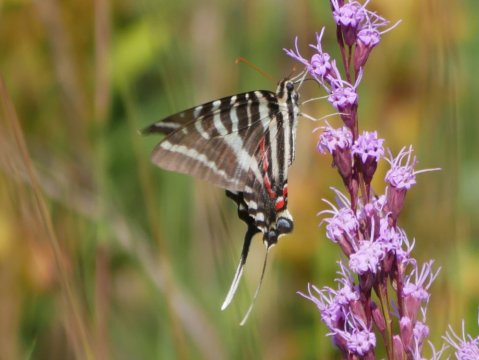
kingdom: Animalia
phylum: Arthropoda
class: Insecta
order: Lepidoptera
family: Papilionidae
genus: Protographium
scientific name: Protographium marcellus
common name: Zebra Swallowtail
